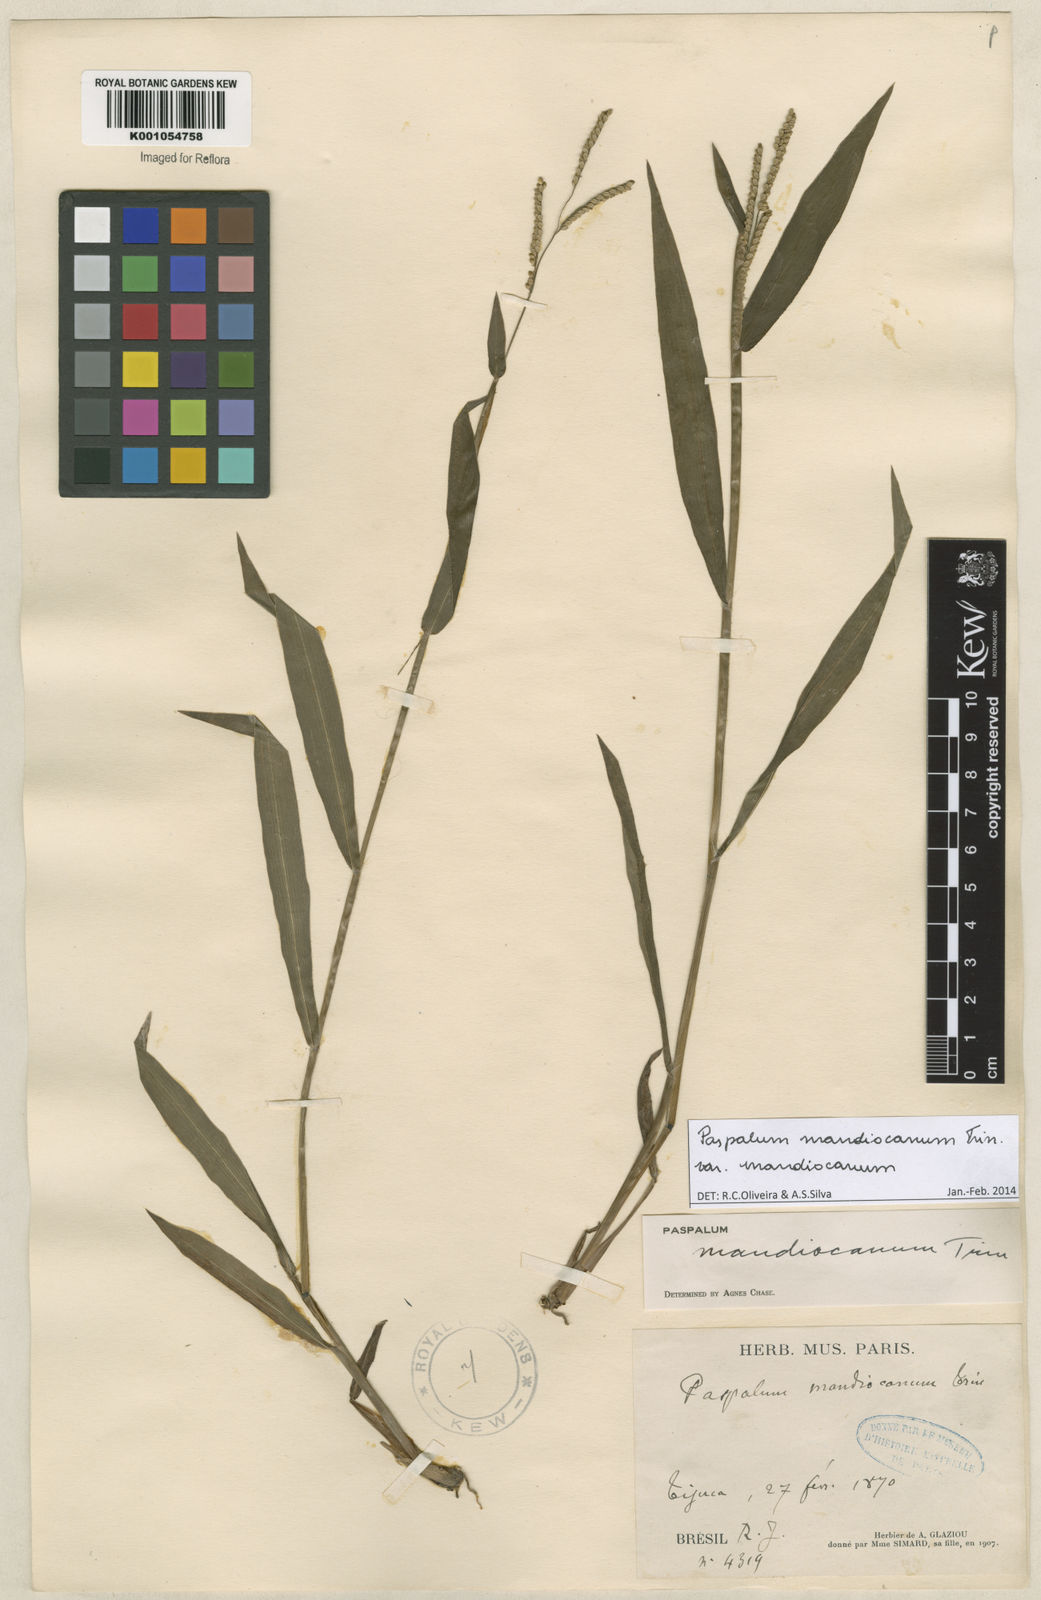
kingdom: Plantae
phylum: Tracheophyta
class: Liliopsida
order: Poales
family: Poaceae
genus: Paspalum
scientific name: Paspalum mandiocanum
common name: Paspalum
